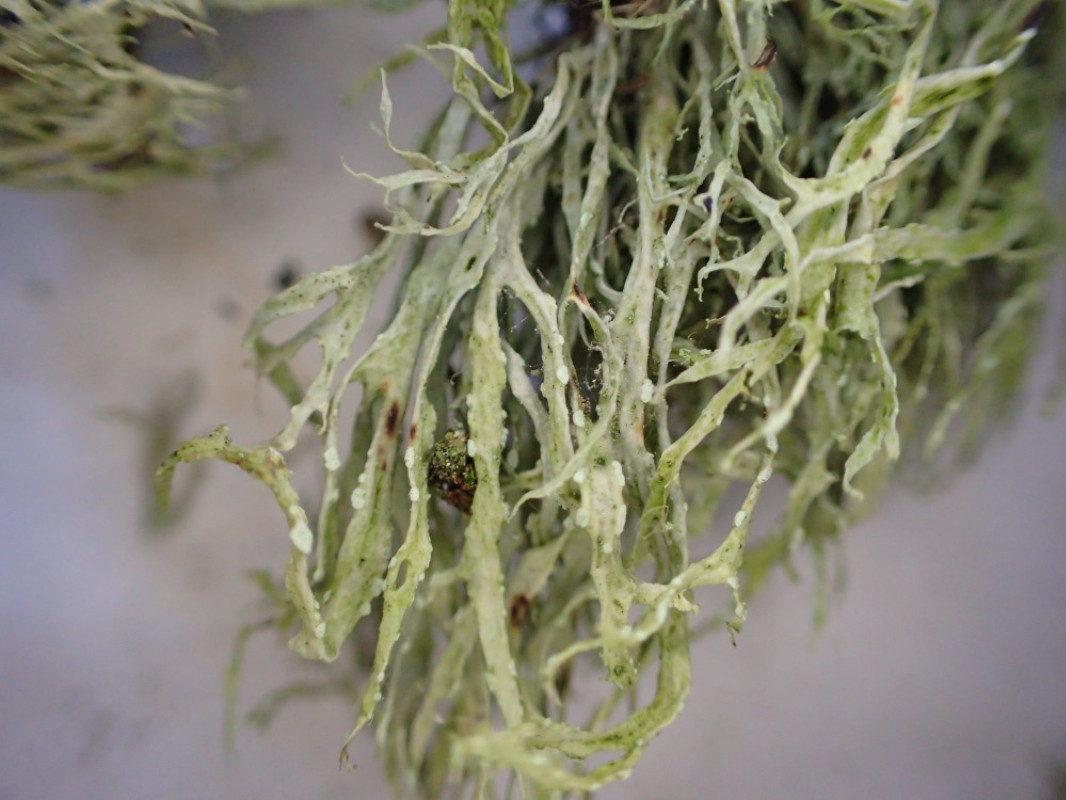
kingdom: Fungi
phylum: Ascomycota
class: Lecanoromycetes
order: Lecanorales
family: Ramalinaceae
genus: Ramalina
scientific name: Ramalina farinacea
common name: melet grenlav
